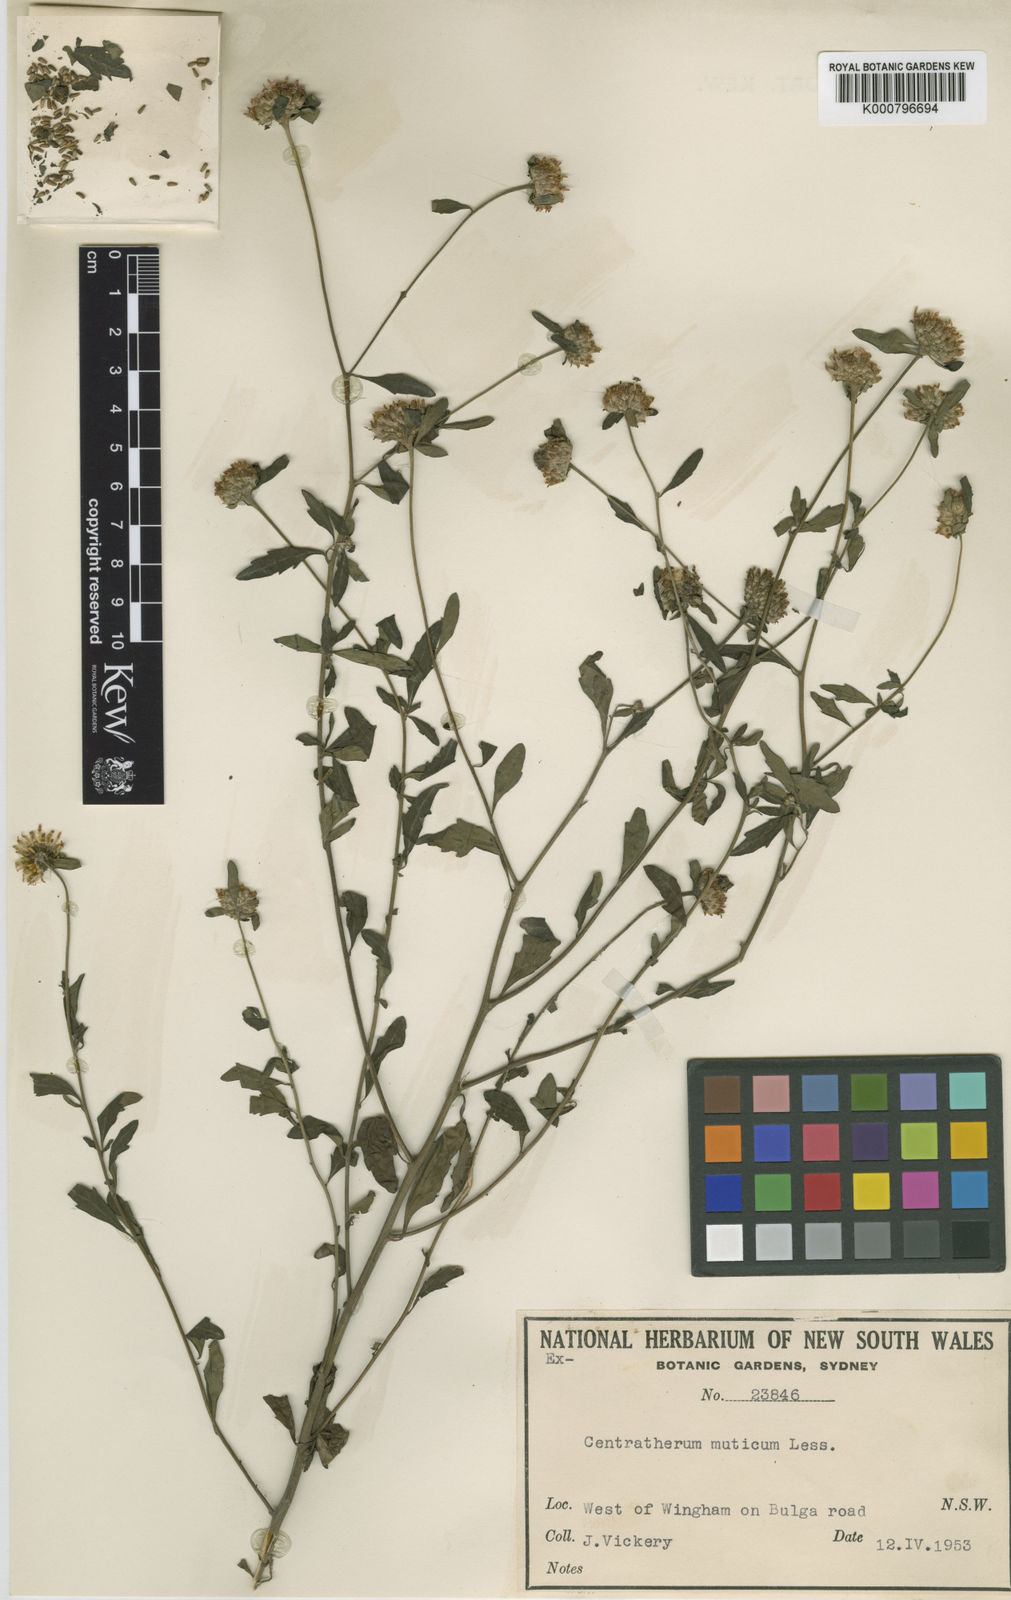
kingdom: Plantae
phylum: Tracheophyta
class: Magnoliopsida
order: Asterales
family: Asteraceae
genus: Centratherum
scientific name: Centratherum punctatum
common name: Larkdaisy
